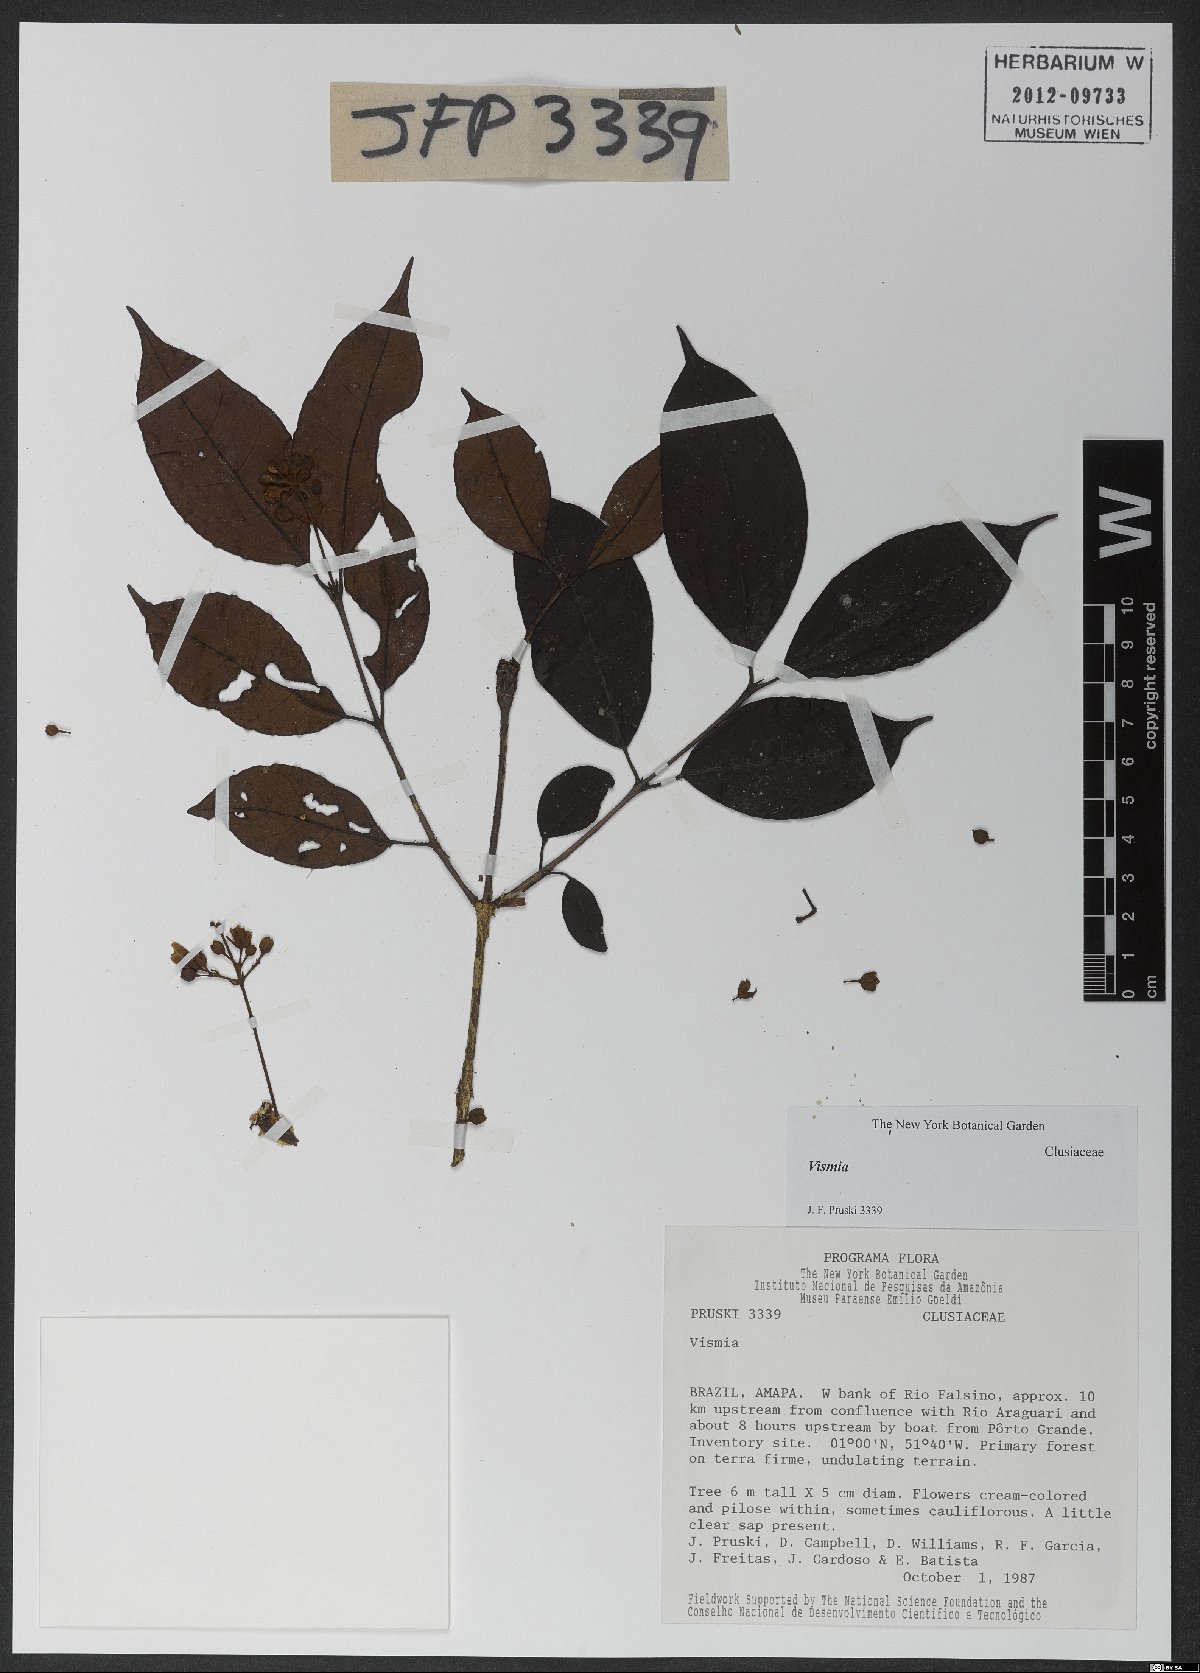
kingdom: Plantae
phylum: Tracheophyta
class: Magnoliopsida
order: Malpighiales
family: Hypericaceae
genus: Vismia
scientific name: Vismia cayennensis
